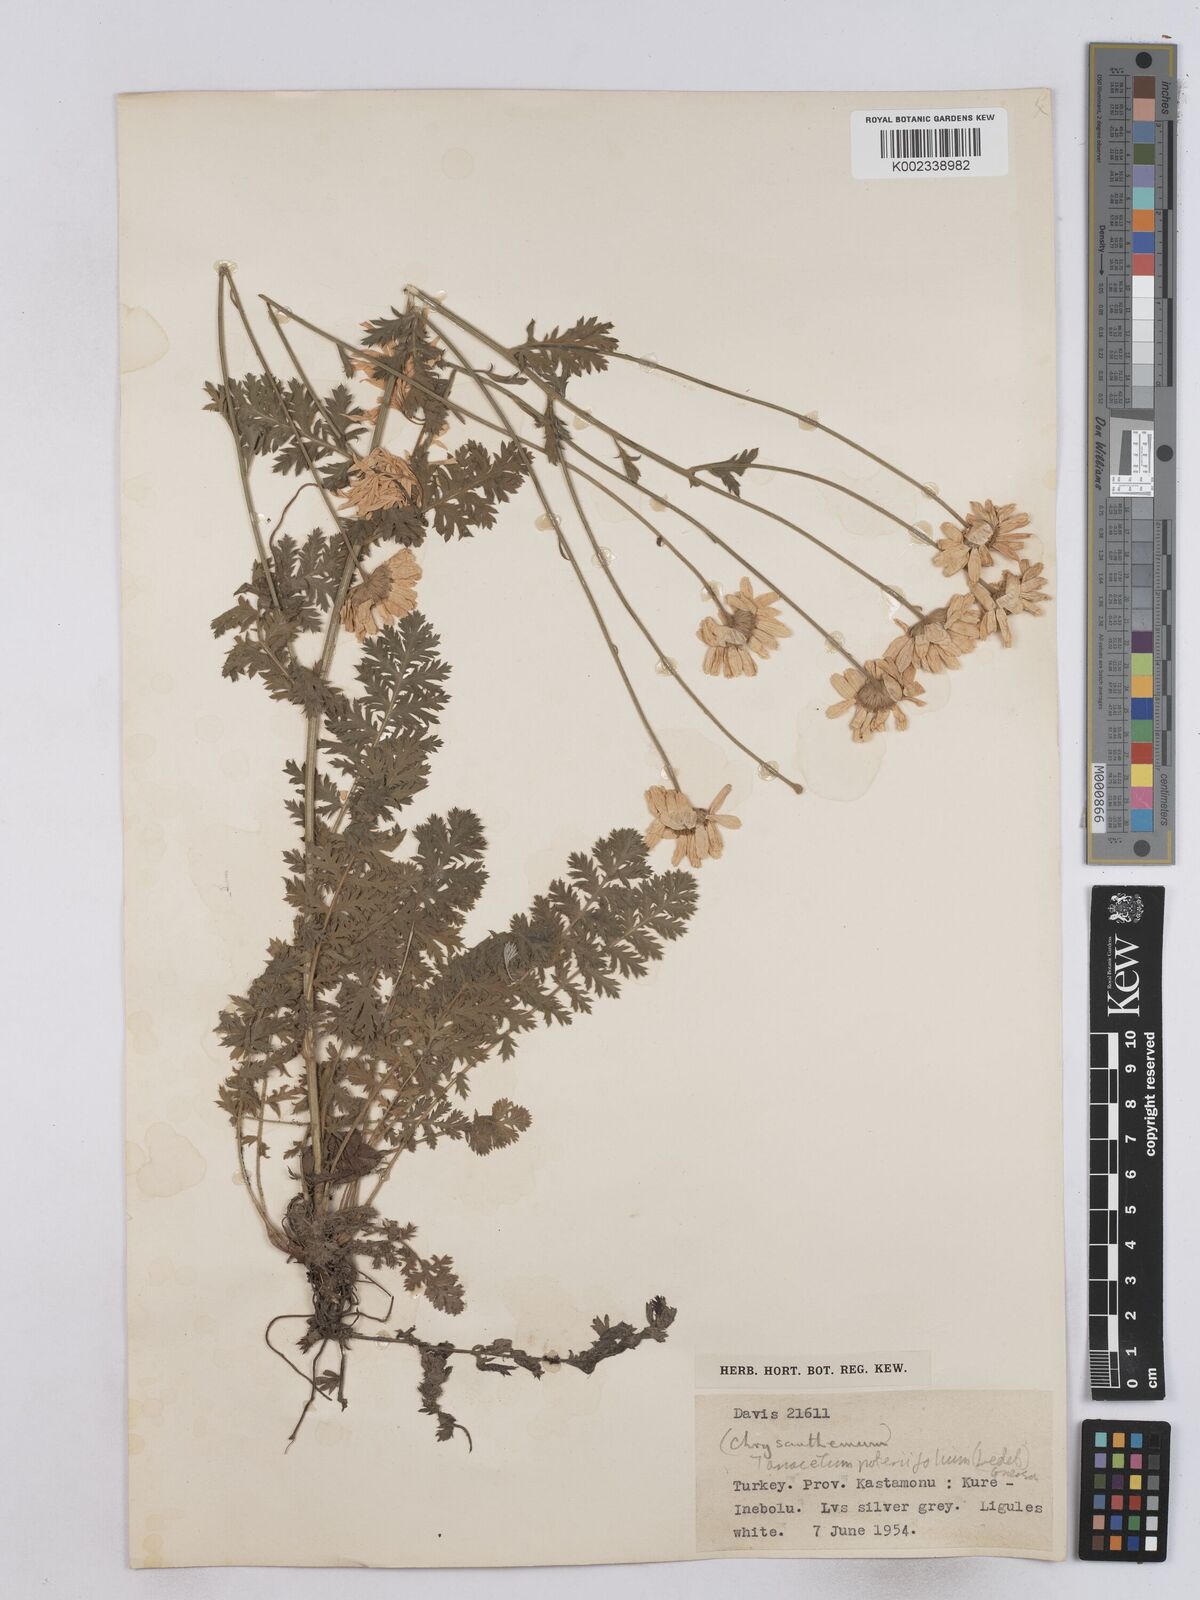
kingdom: Plantae
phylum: Tracheophyta
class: Magnoliopsida
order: Asterales
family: Asteraceae
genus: Tanacetum
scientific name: Tanacetum poteriifolium
